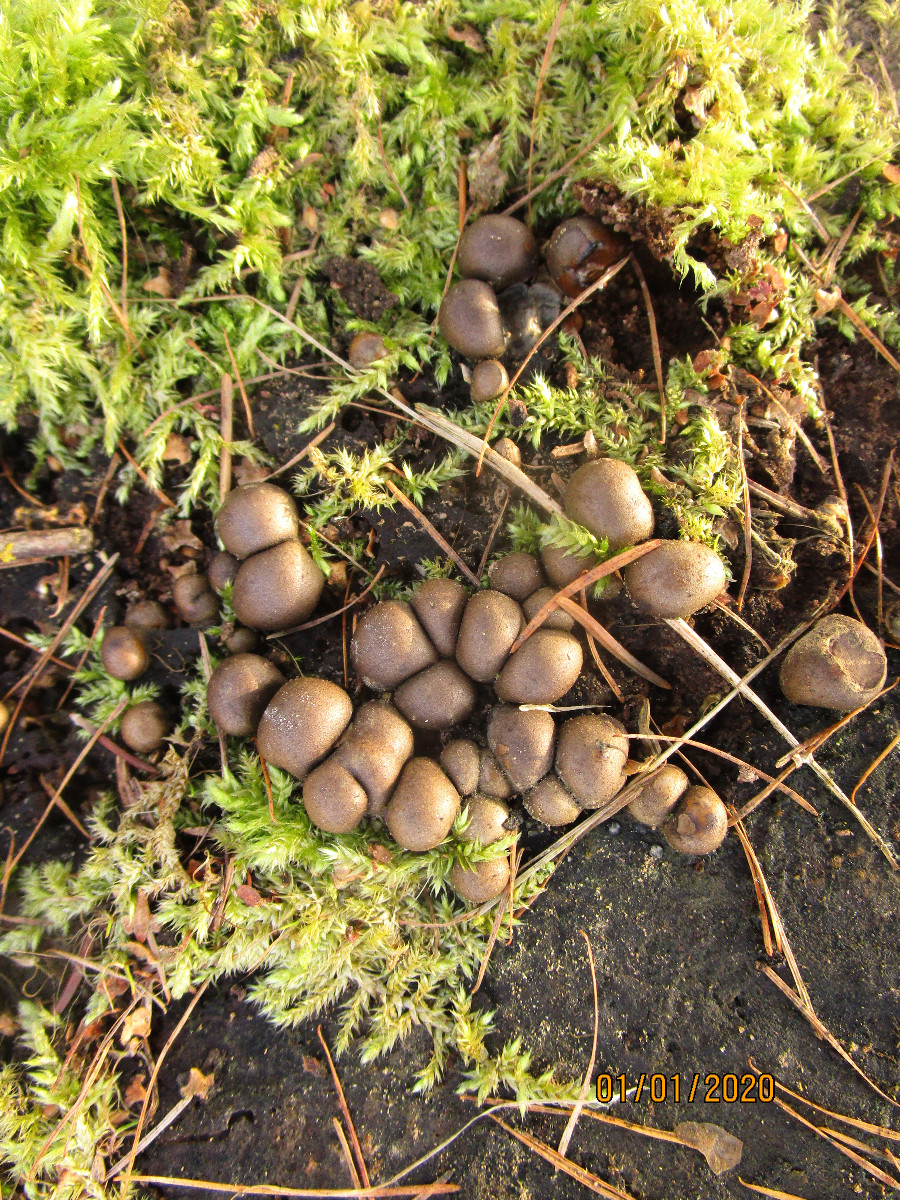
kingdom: Protozoa
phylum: Mycetozoa
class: Myxomycetes
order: Cribrariales
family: Tubiferaceae
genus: Lycogala
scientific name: Lycogala epidendrum
